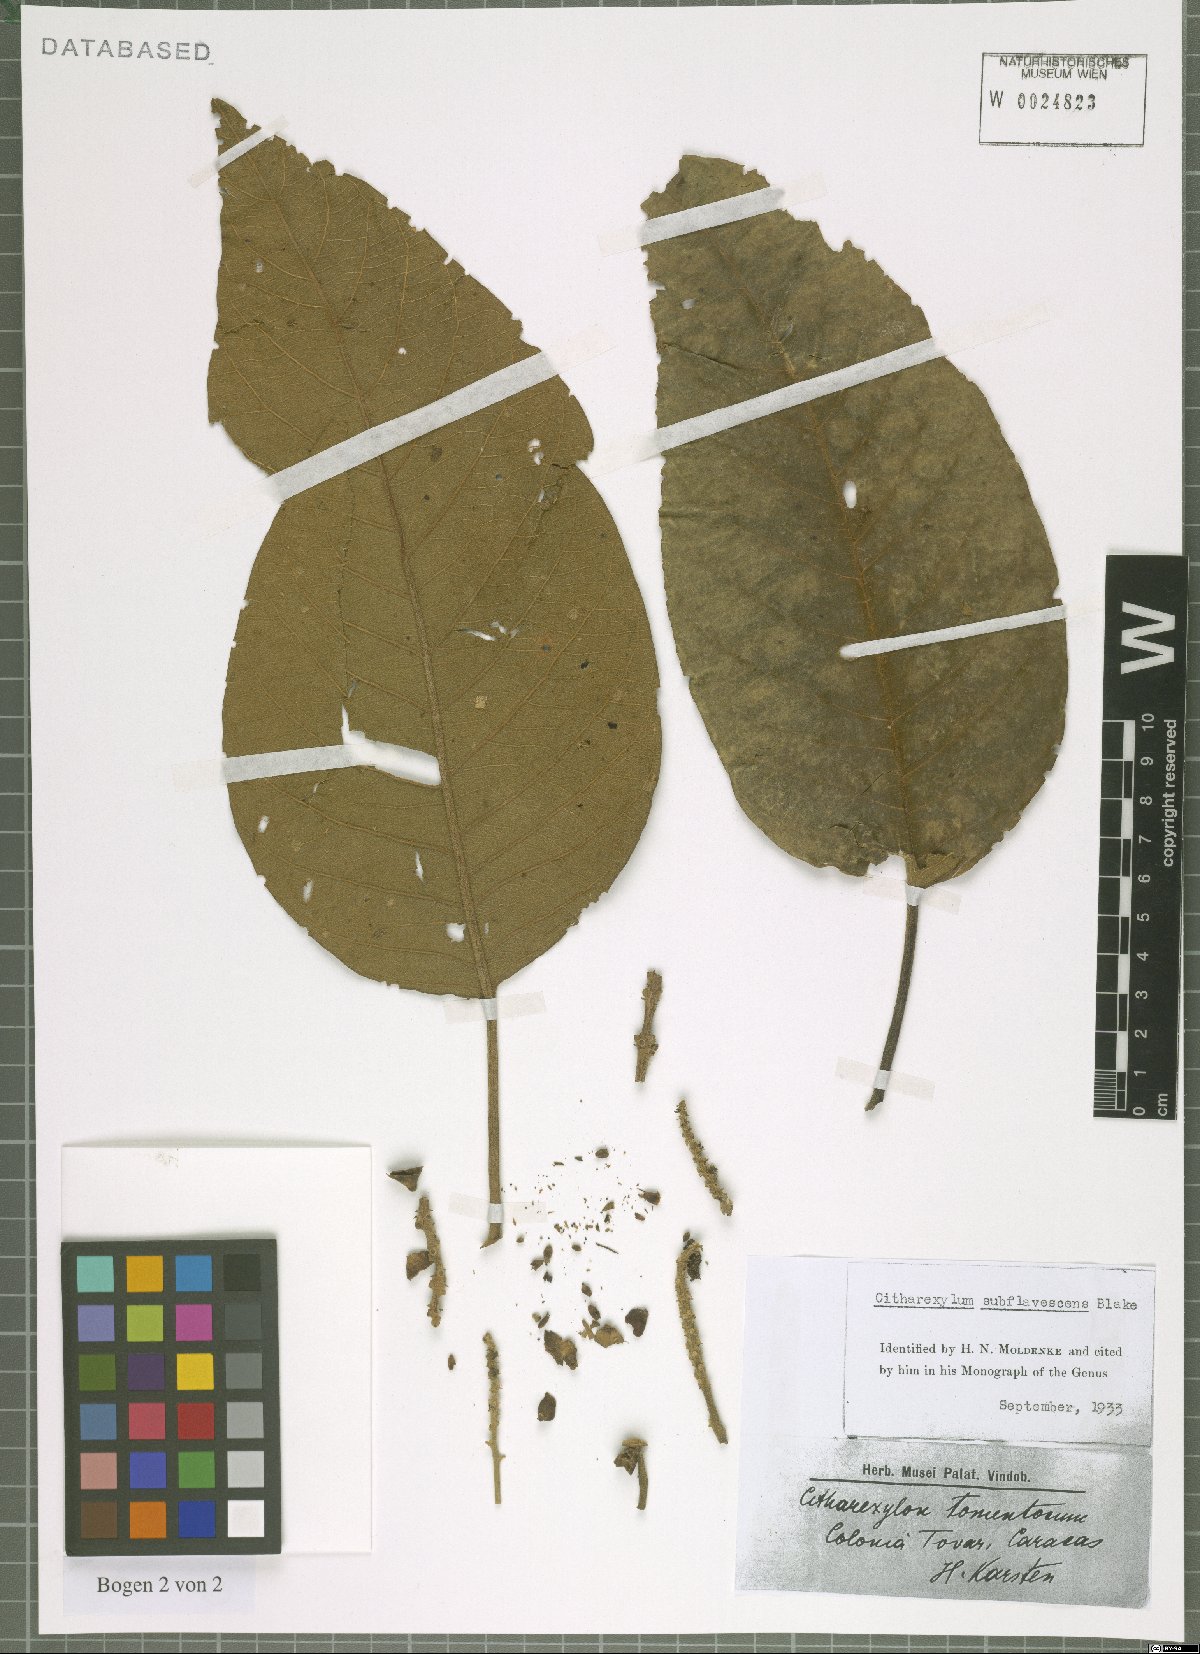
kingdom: Plantae
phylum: Tracheophyta
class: Magnoliopsida
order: Lamiales
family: Verbenaceae
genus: Citharexylum
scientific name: Citharexylum subflavescens
